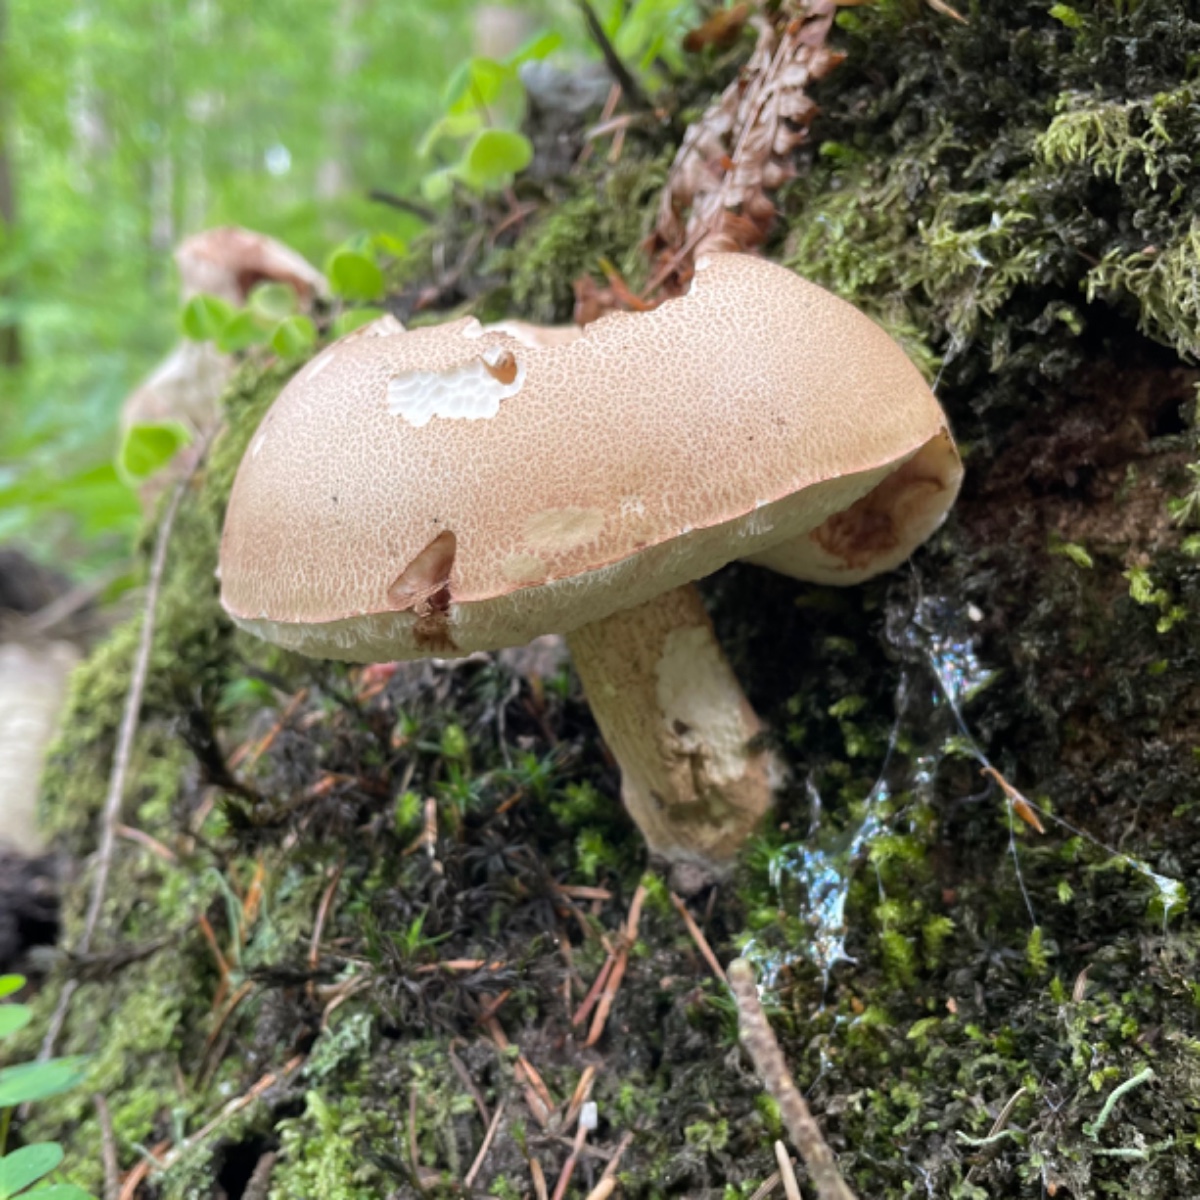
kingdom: Fungi
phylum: Basidiomycota
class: Agaricomycetes
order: Boletales
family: Boletaceae
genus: Tylopilus
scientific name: Tylopilus felleus
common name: galderørhat
